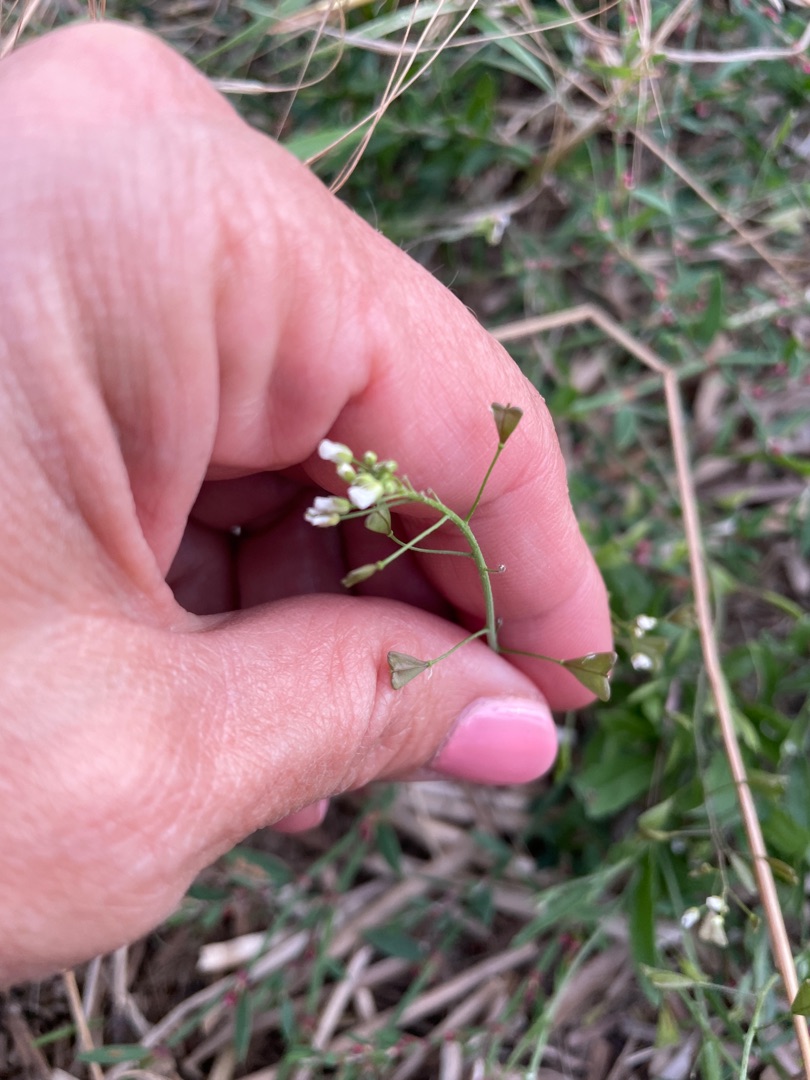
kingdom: Plantae
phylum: Tracheophyta
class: Magnoliopsida
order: Brassicales
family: Brassicaceae
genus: Capsella
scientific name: Capsella bursa-pastoris
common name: Hyrdetaske
